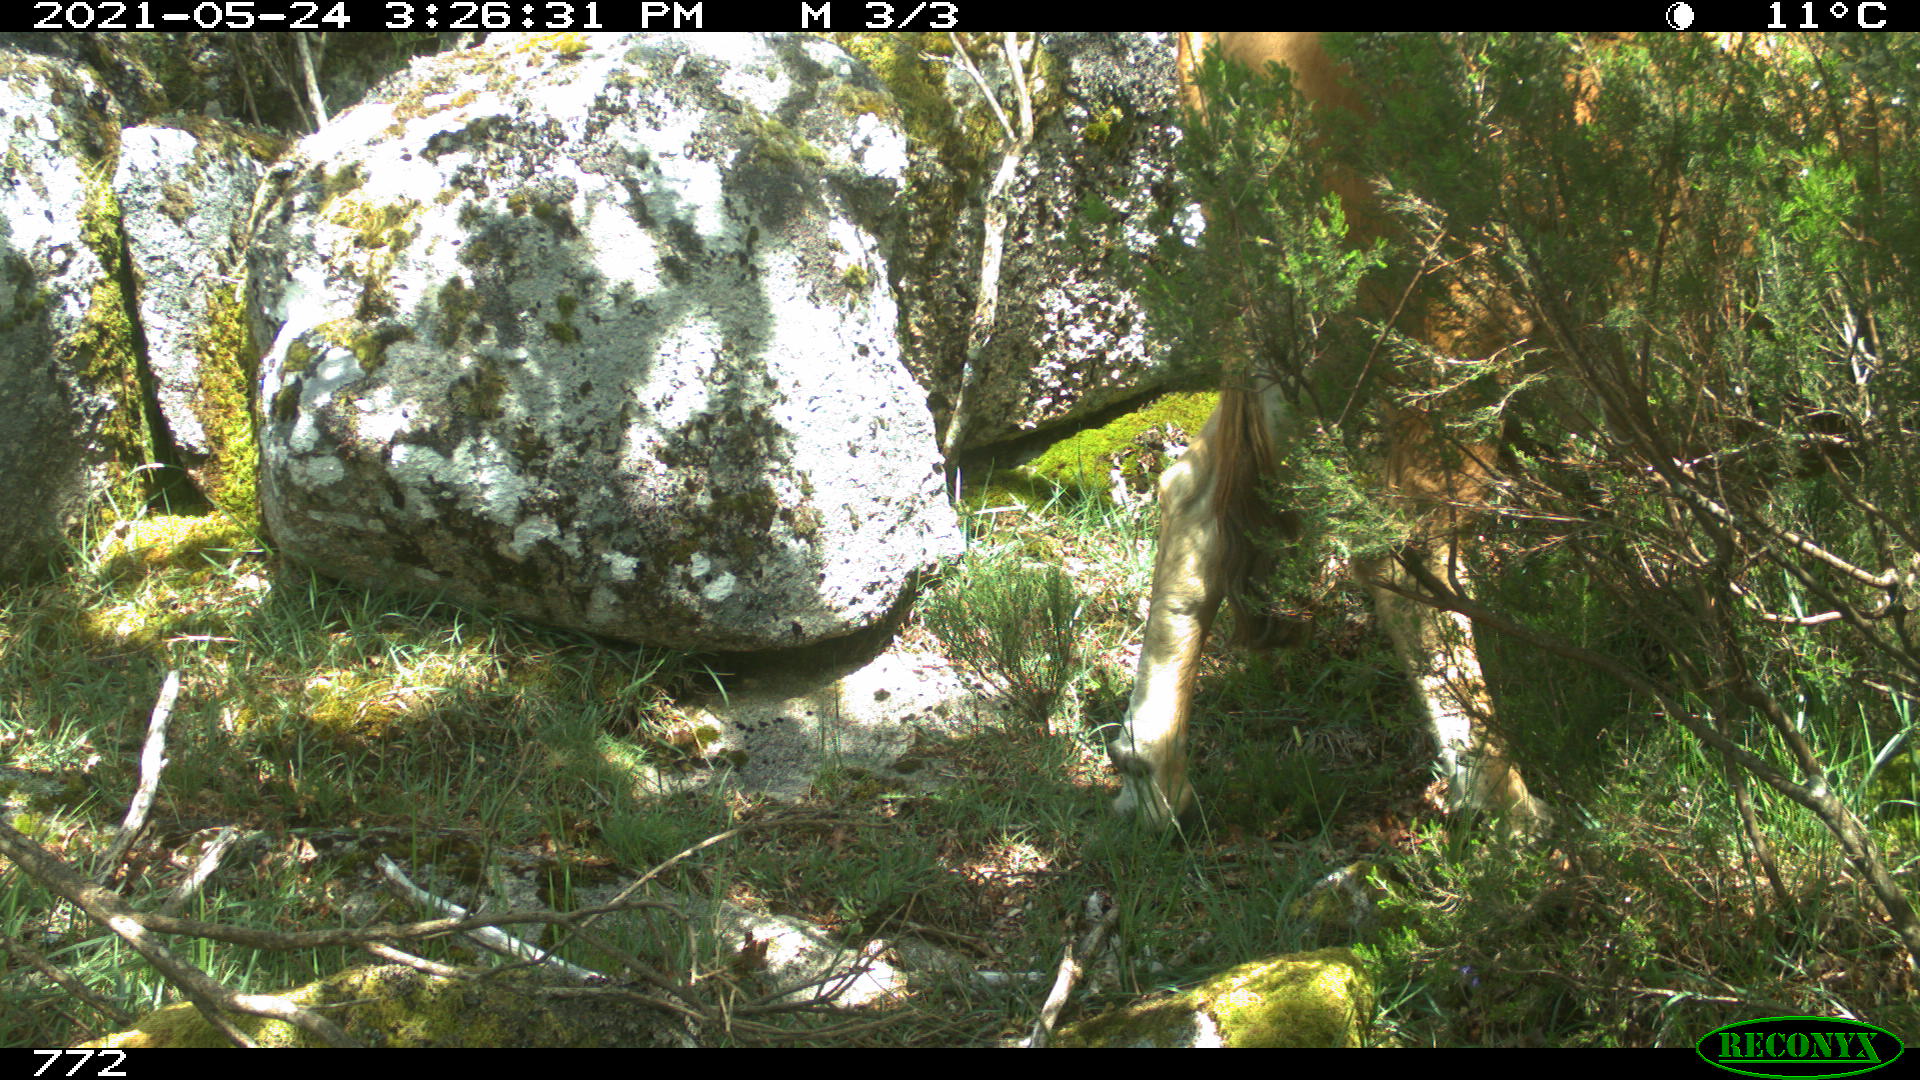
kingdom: Animalia
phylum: Chordata
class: Mammalia
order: Artiodactyla
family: Bovidae
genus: Bos
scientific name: Bos taurus
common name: Domesticated cattle
